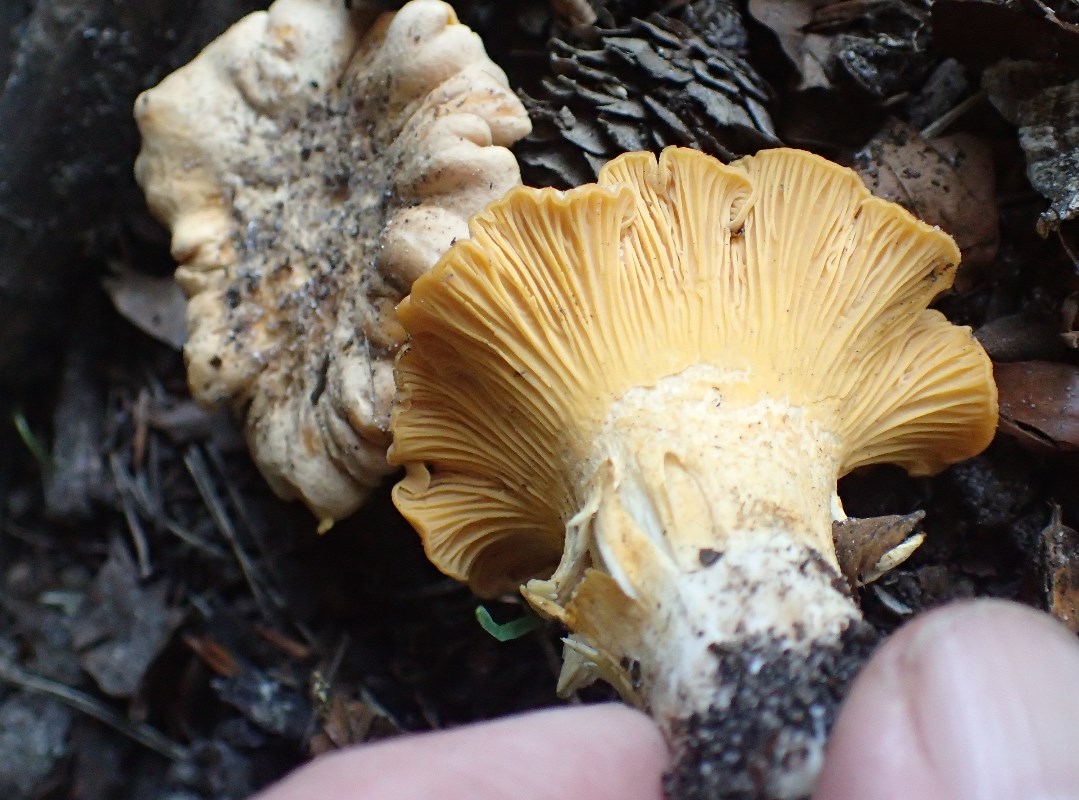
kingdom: Fungi
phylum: Basidiomycota
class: Agaricomycetes
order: Cantharellales
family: Hydnaceae
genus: Cantharellus
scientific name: Cantharellus pallens
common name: bleg kantarel
